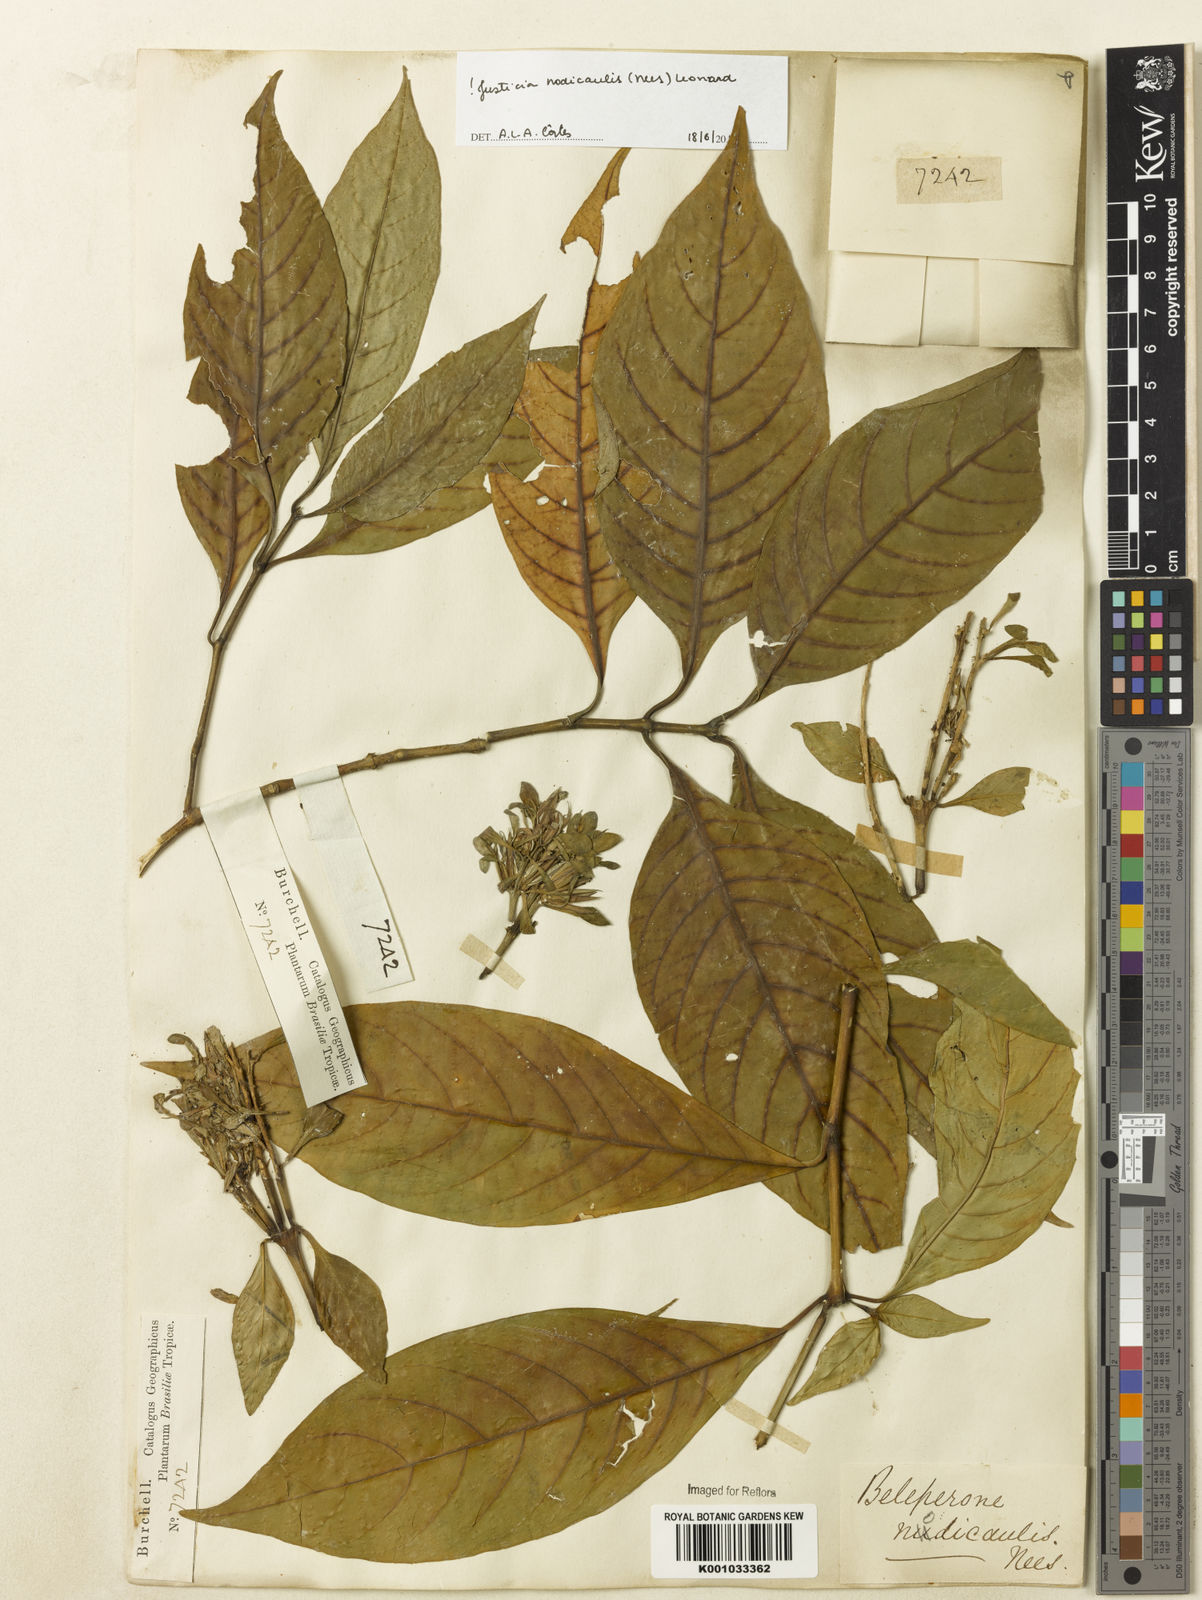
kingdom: Plantae
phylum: Tracheophyta
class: Magnoliopsida
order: Lamiales
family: Acanthaceae
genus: Justicia
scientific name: Justicia nodicaulis
